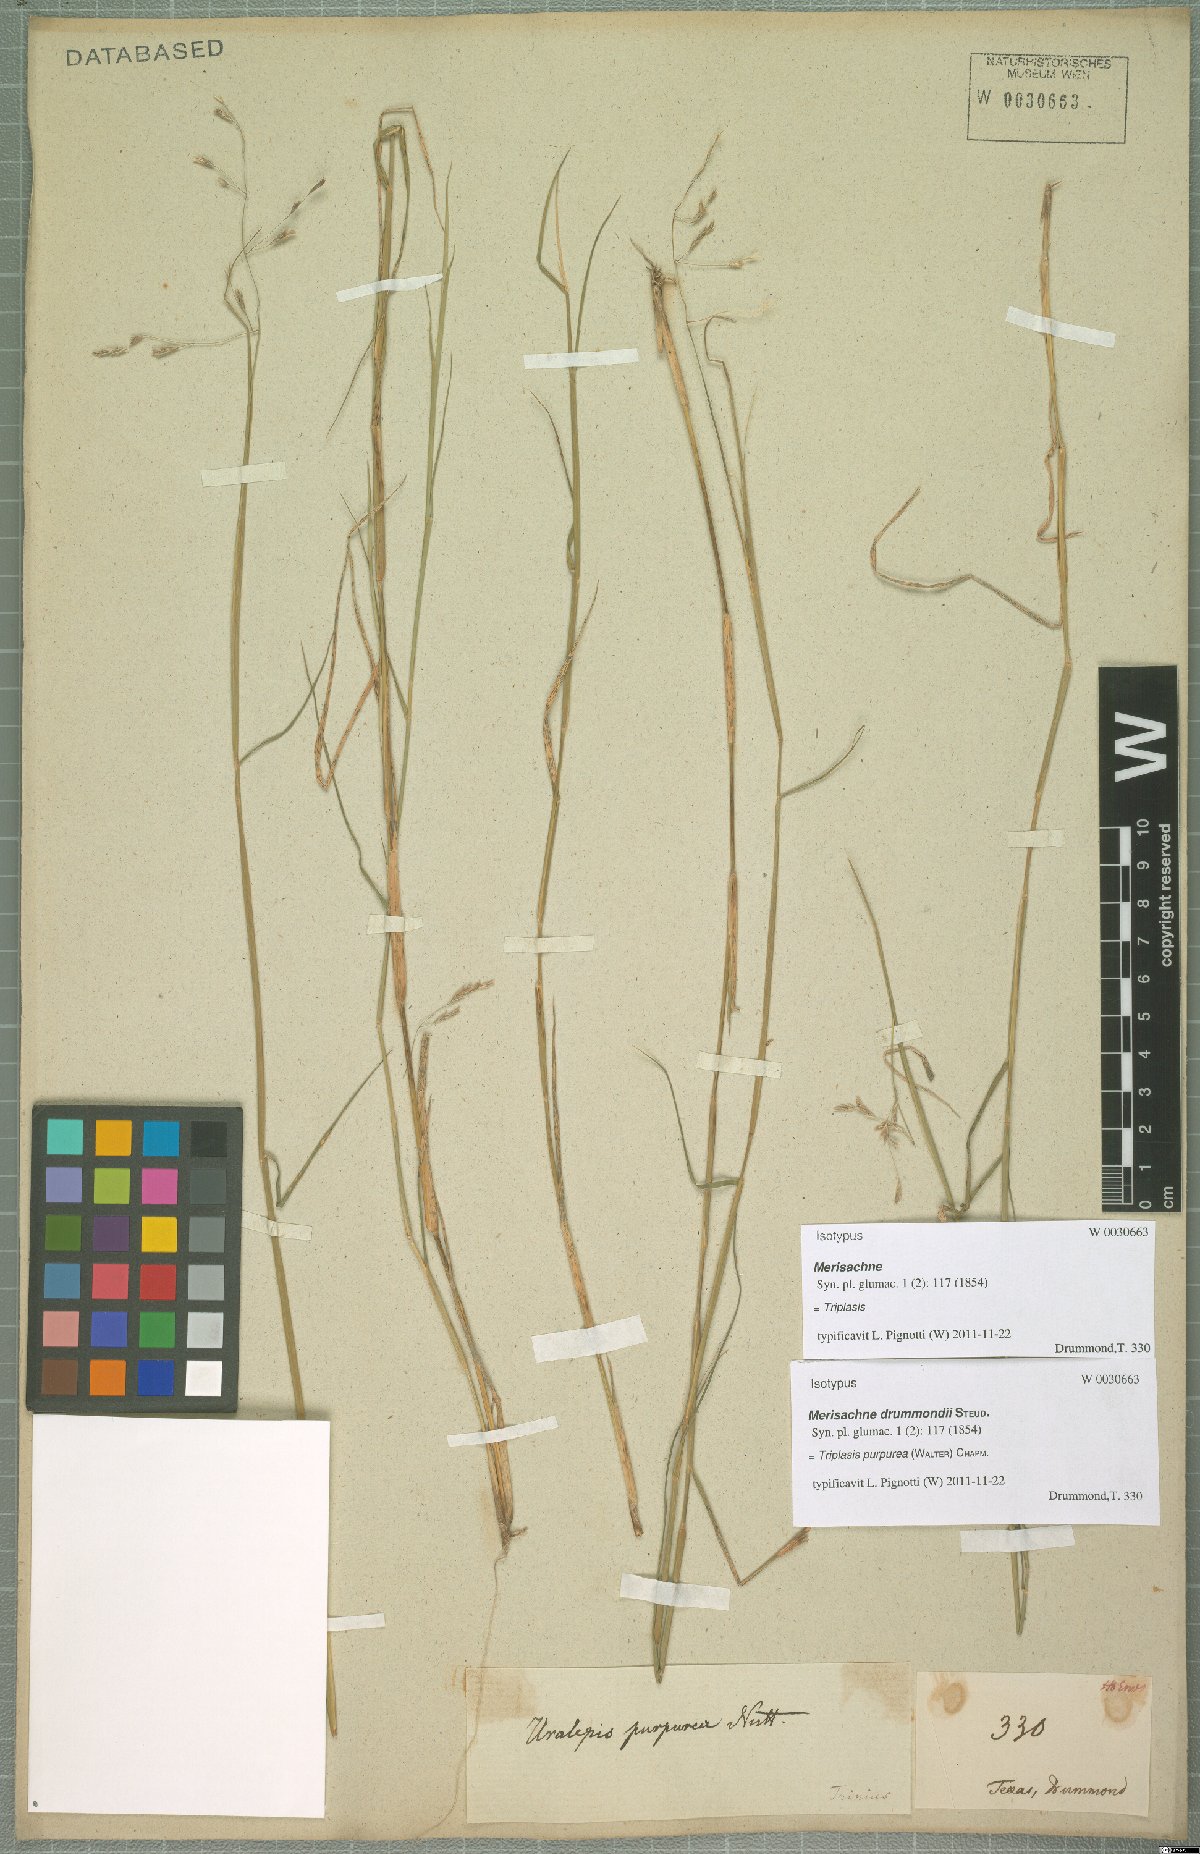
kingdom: Plantae
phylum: Tracheophyta
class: Liliopsida
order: Poales
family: Poaceae
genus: Triplasis
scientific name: Triplasis purpurea
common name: Purple sand grass
